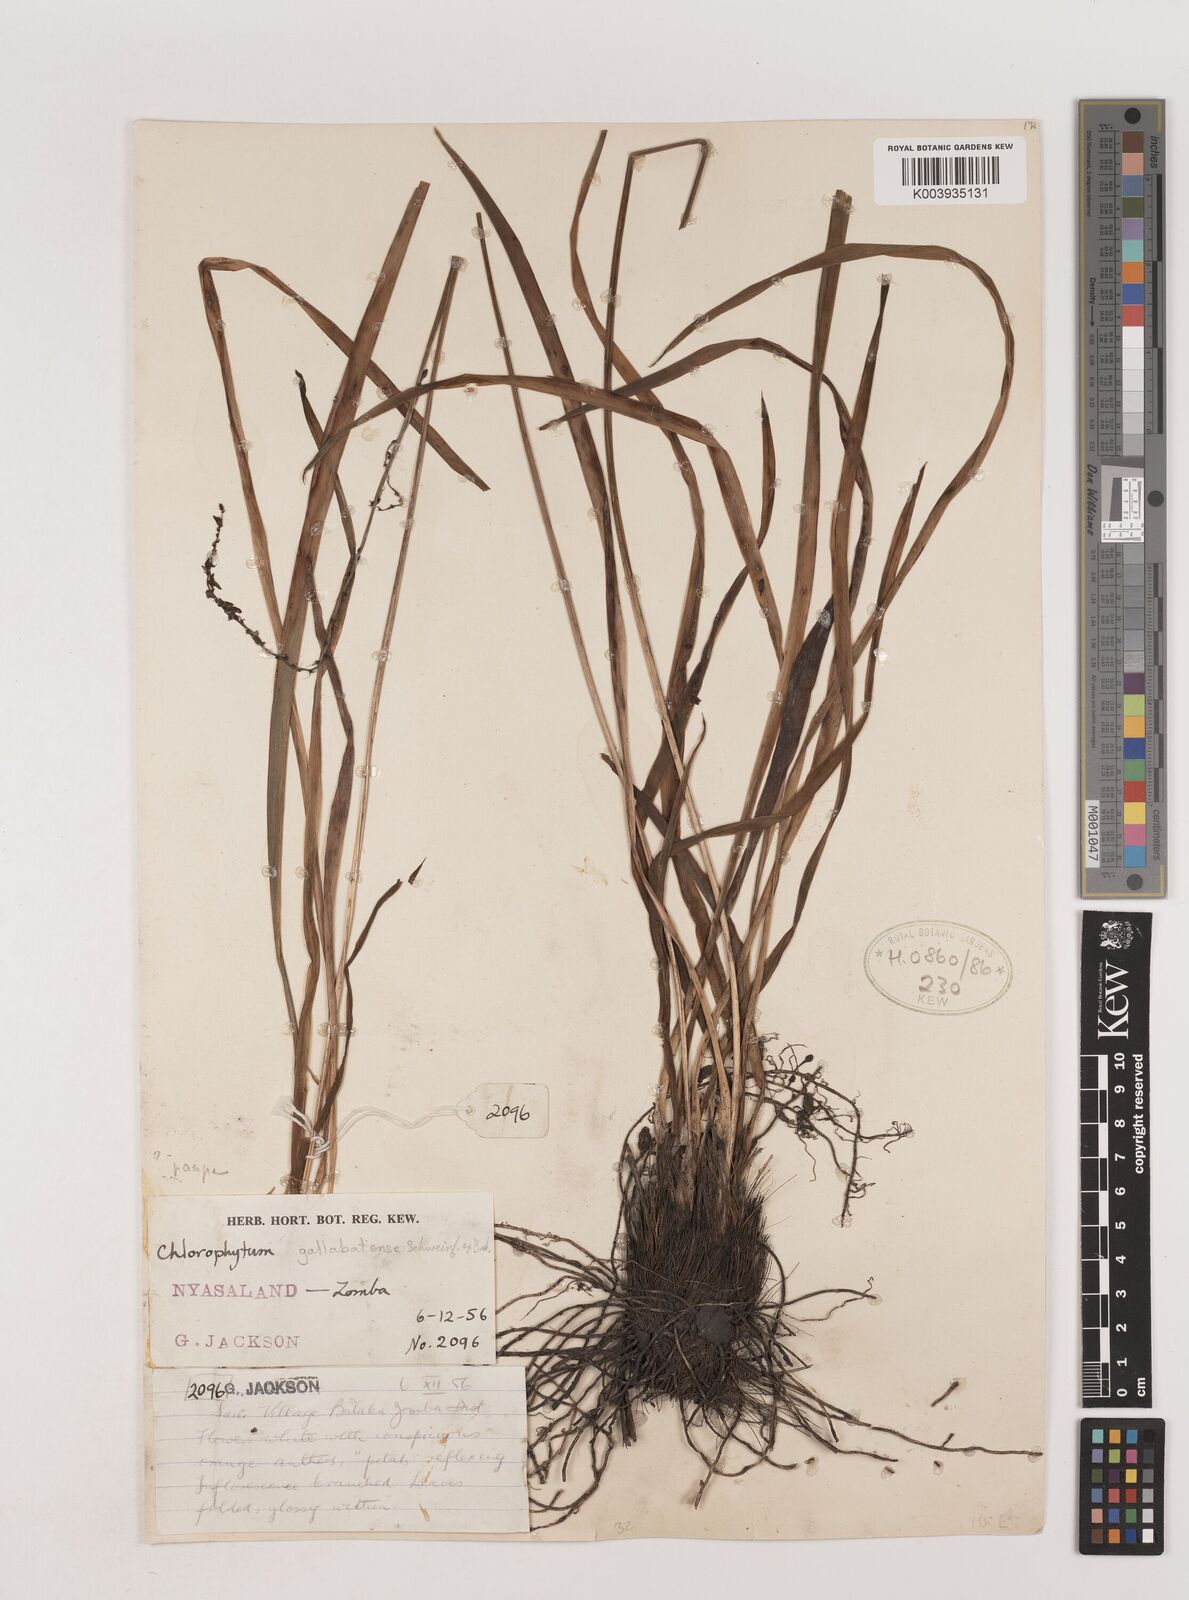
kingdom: Plantae
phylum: Tracheophyta
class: Liliopsida
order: Asparagales
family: Asparagaceae
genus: Chlorophytum
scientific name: Chlorophytum pauper
